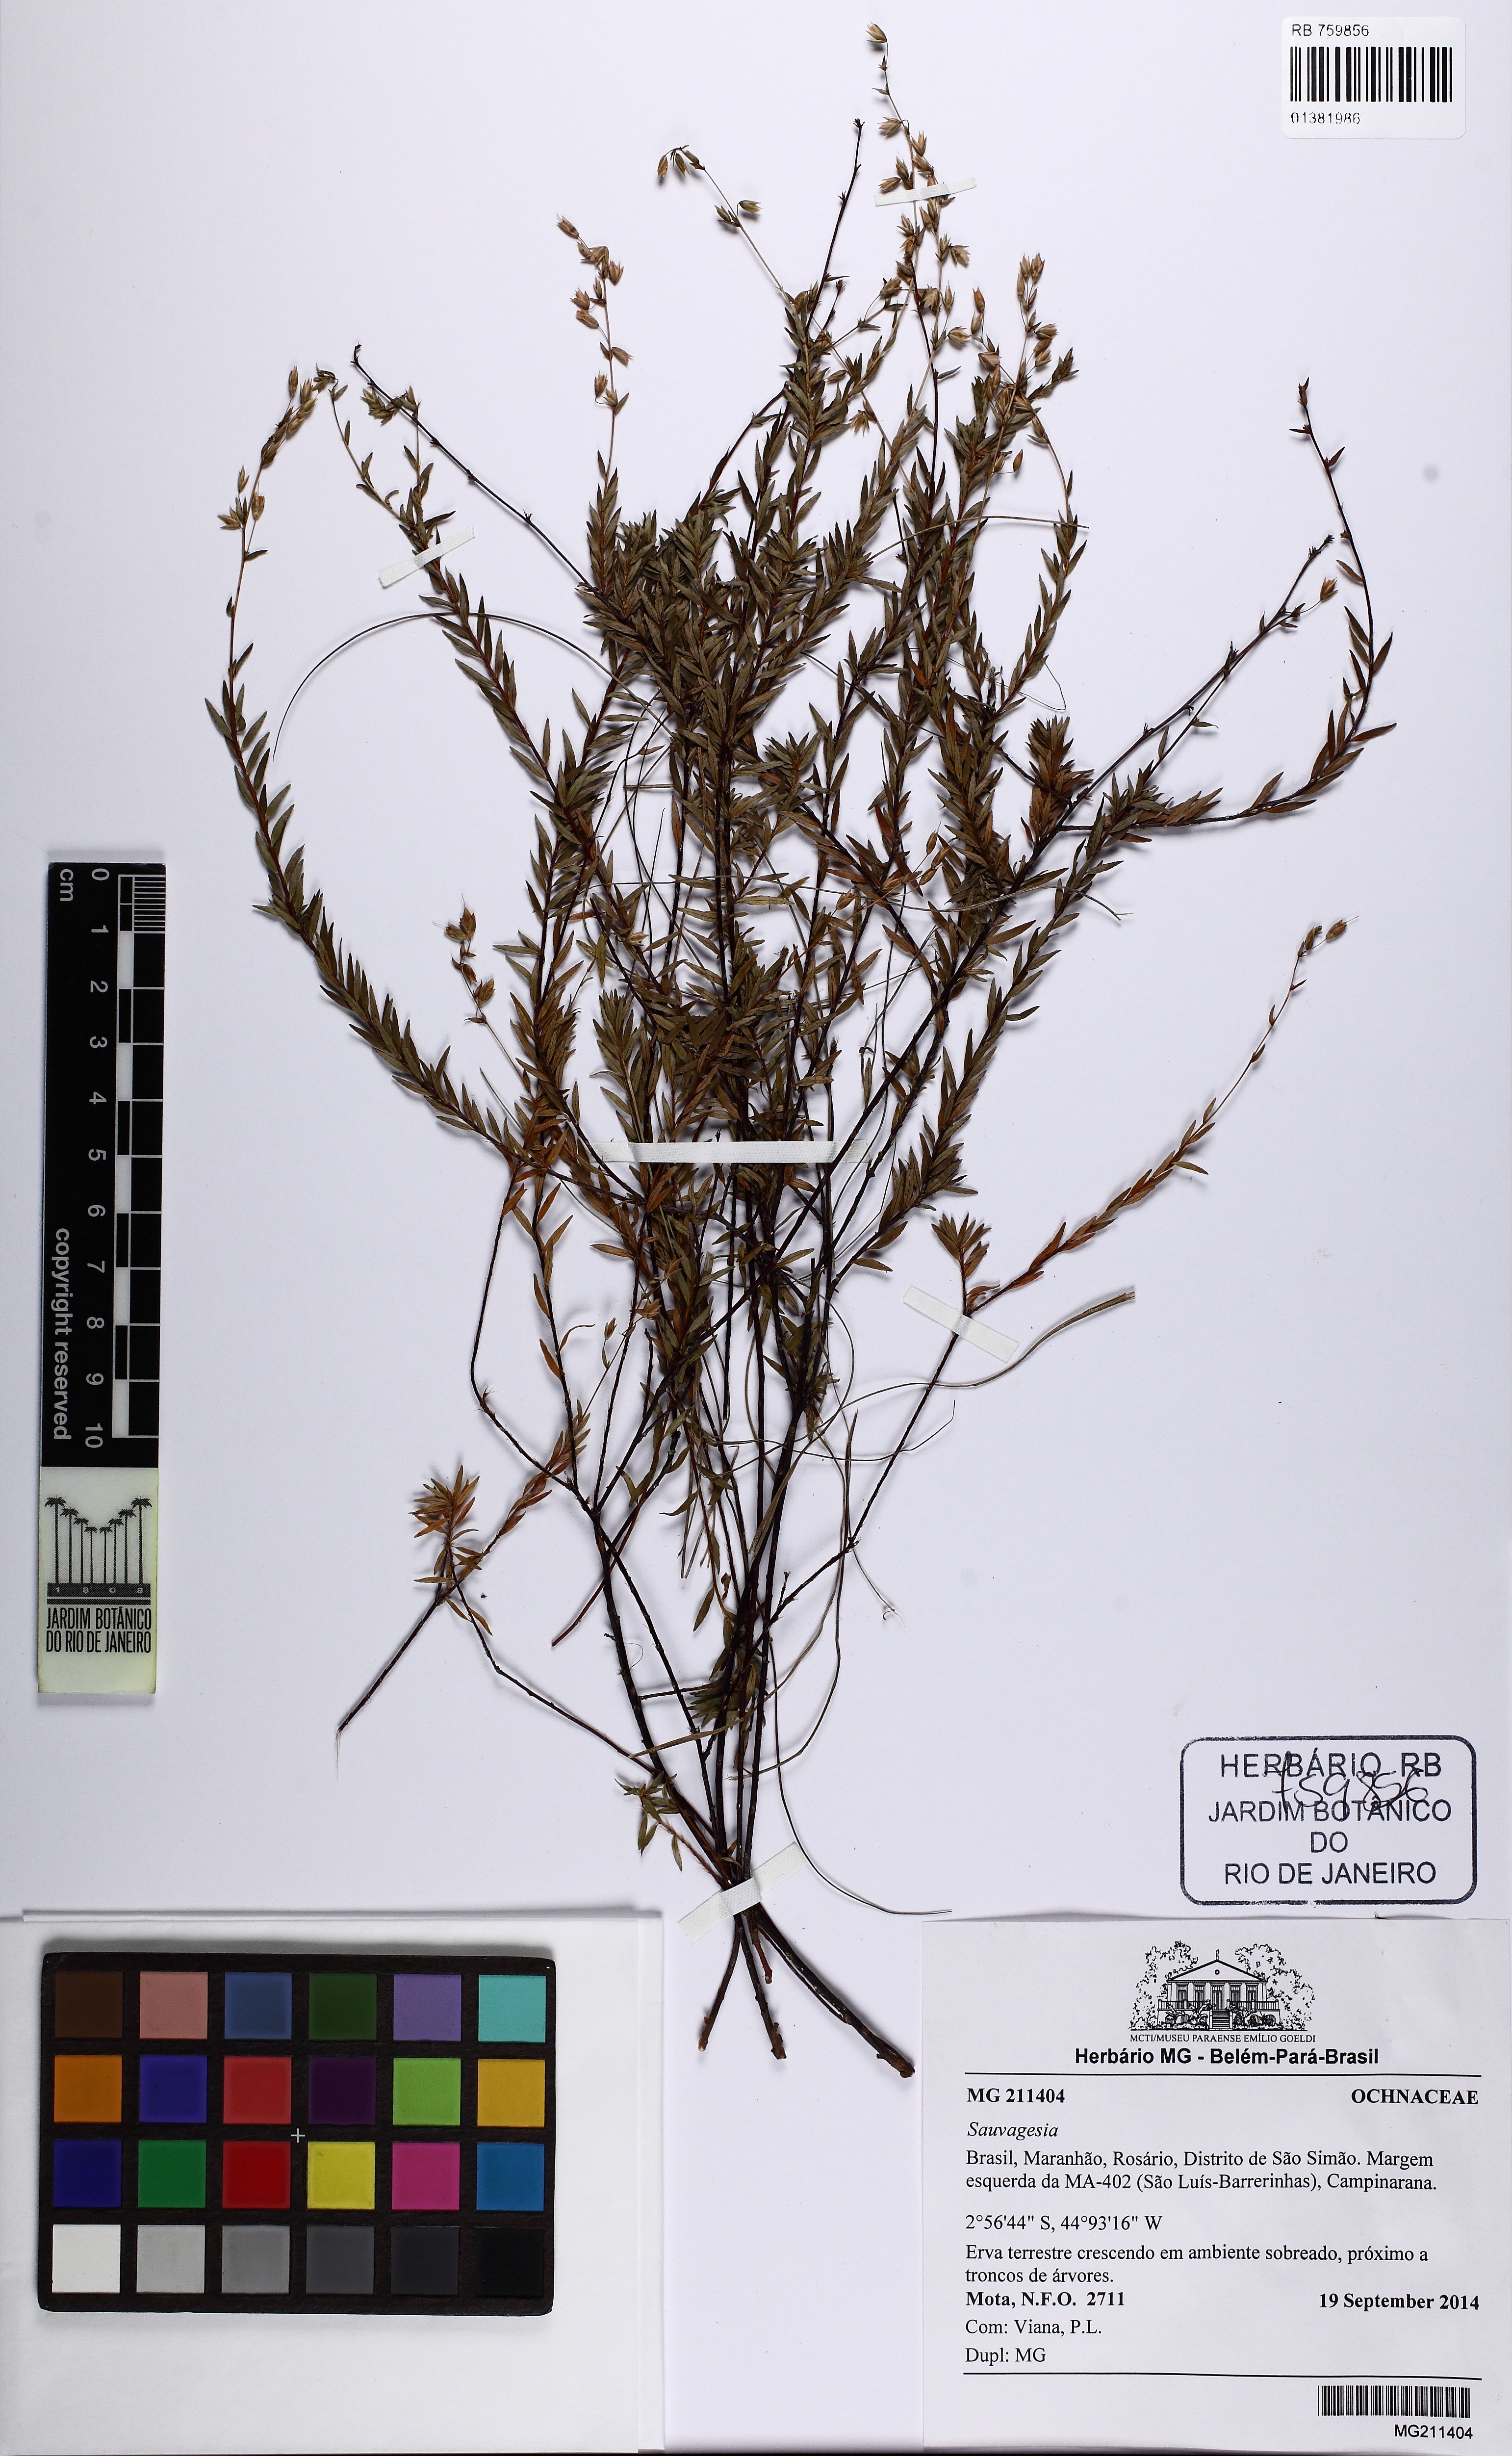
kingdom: Plantae
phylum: Tracheophyta
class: Magnoliopsida
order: Malpighiales
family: Ochnaceae
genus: Sauvagesia
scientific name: Sauvagesia
